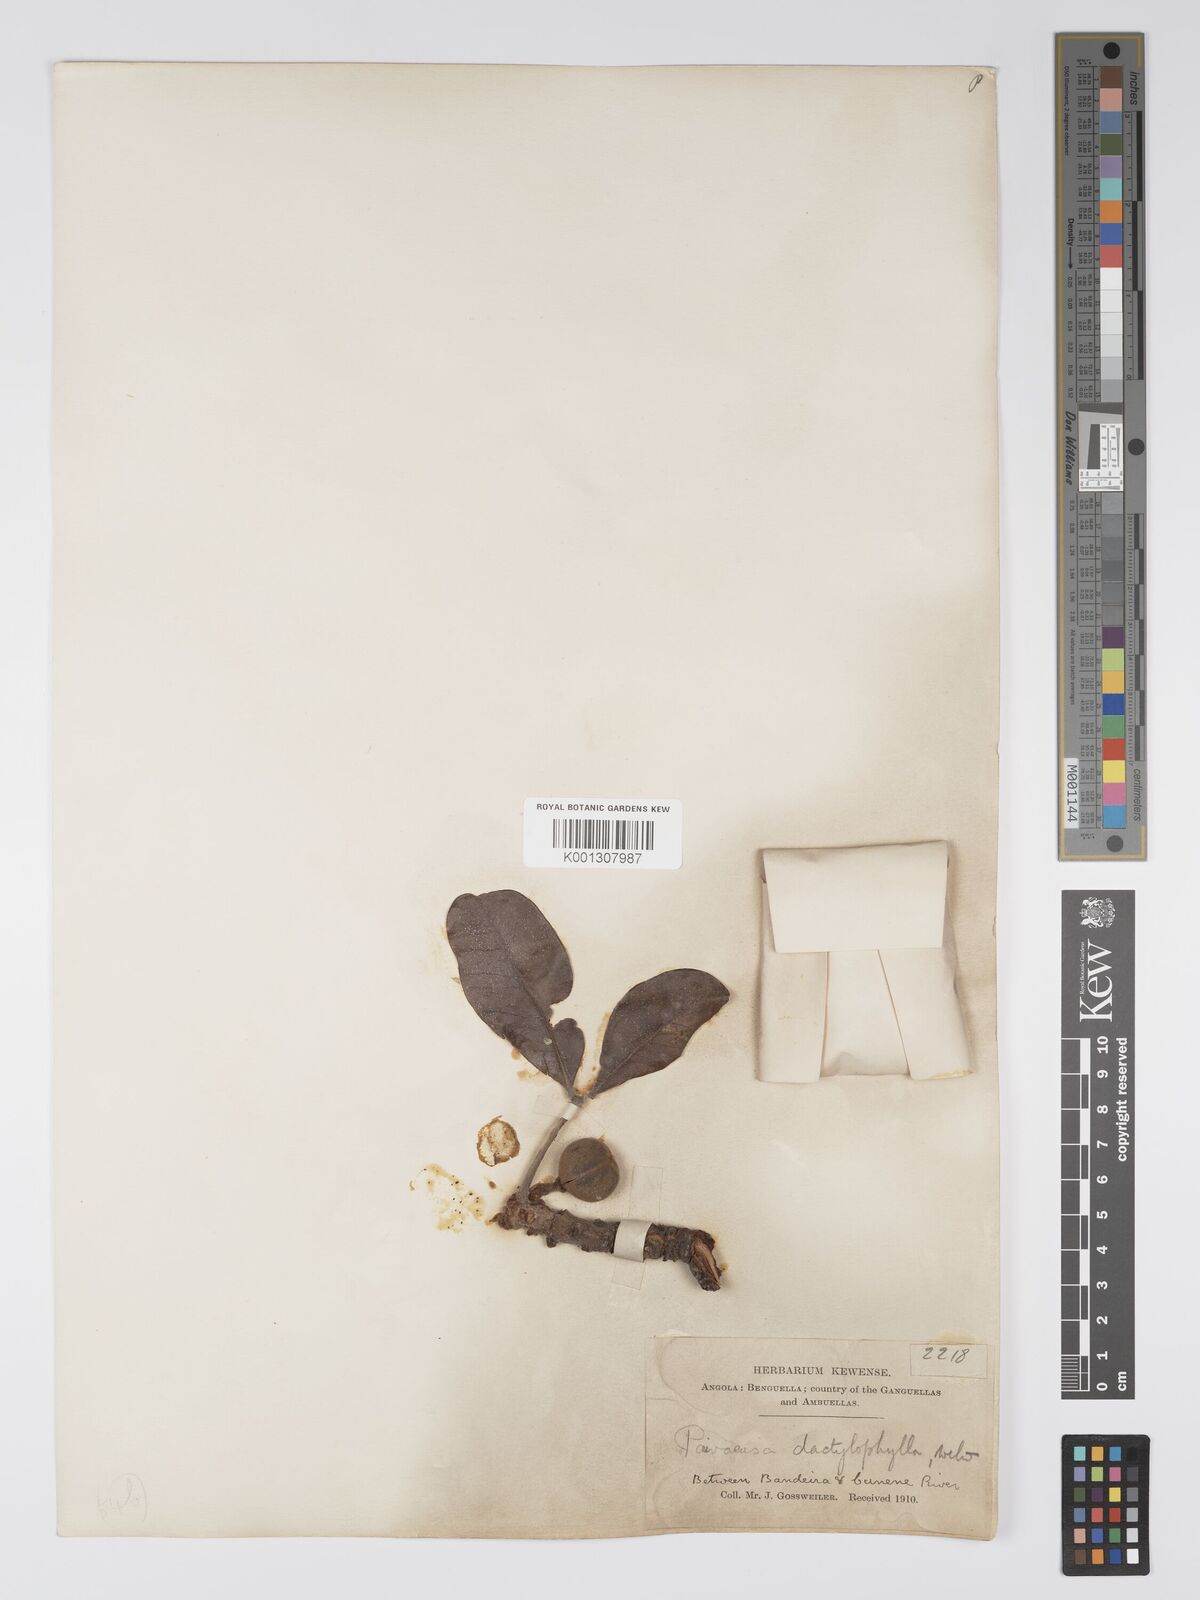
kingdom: Plantae
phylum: Tracheophyta
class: Magnoliopsida
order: Malpighiales
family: Picrodendraceae
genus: Oldfieldia
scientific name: Oldfieldia dactylophylla
